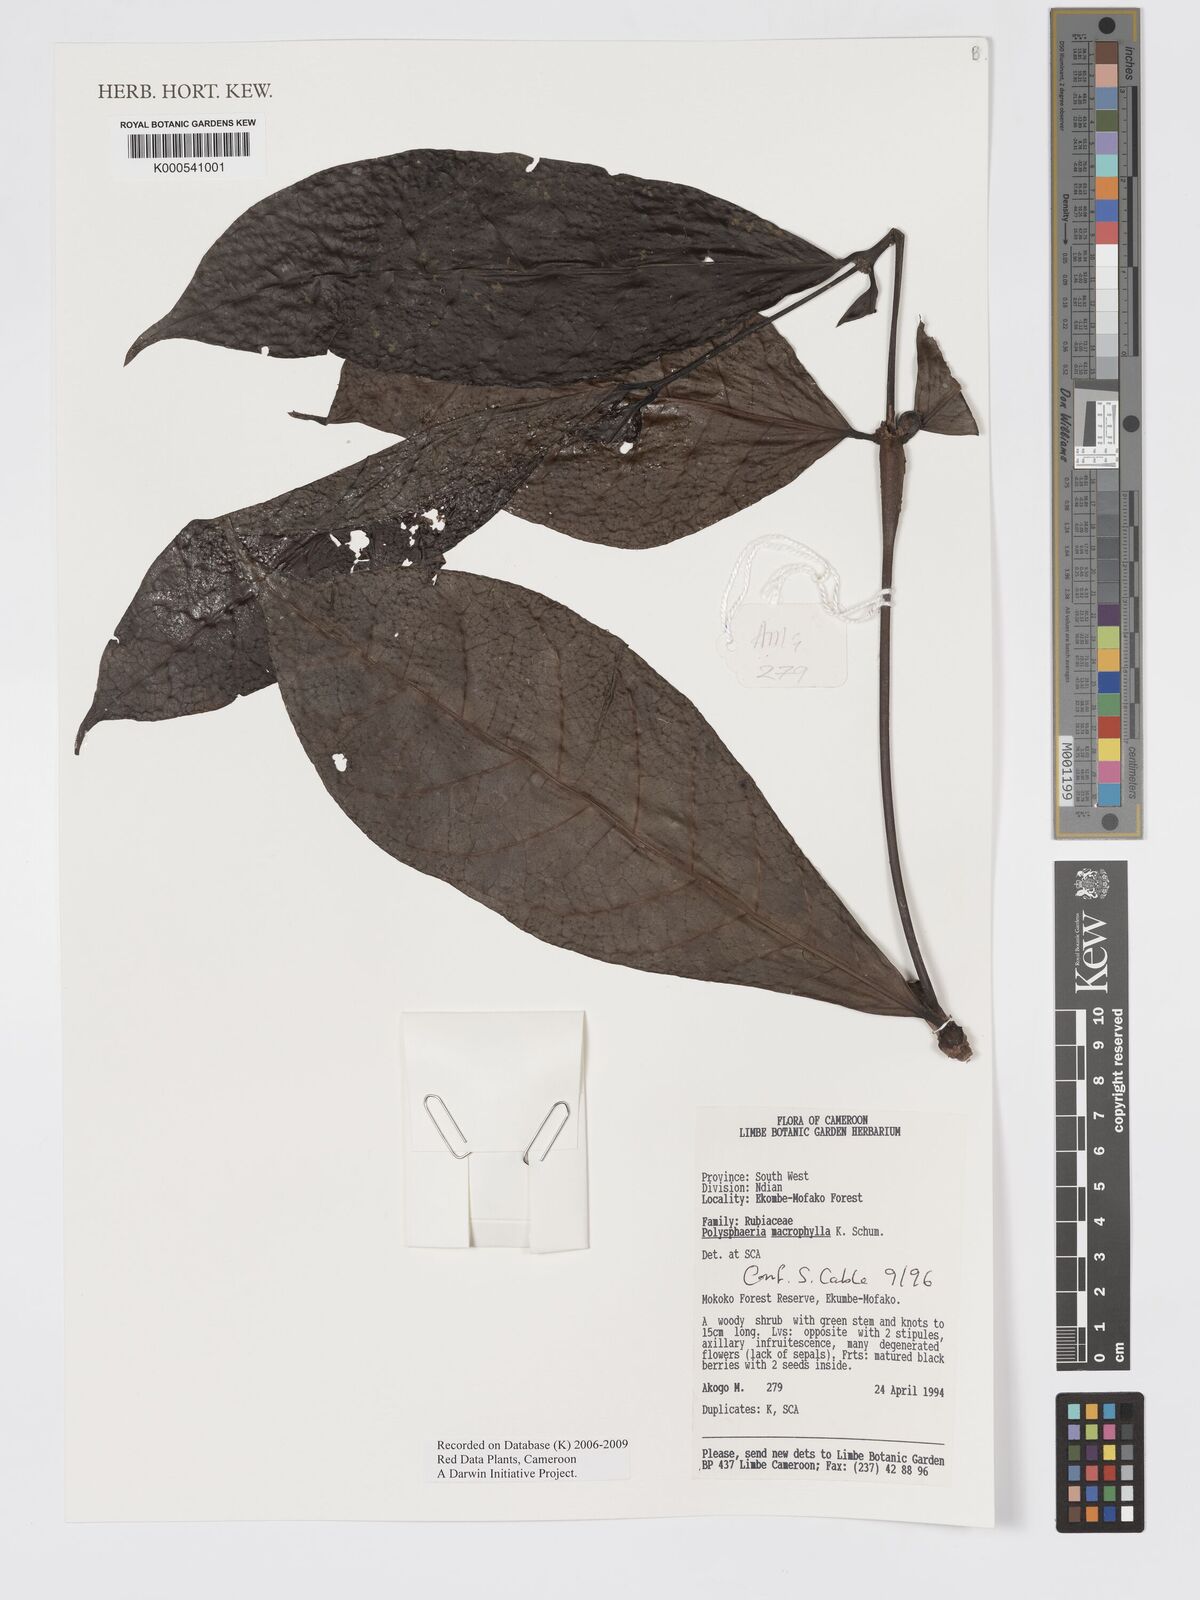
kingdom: Plantae
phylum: Tracheophyta
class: Magnoliopsida
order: Gentianales
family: Rubiaceae
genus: Polysphaeria
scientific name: Polysphaeria macrophylla
